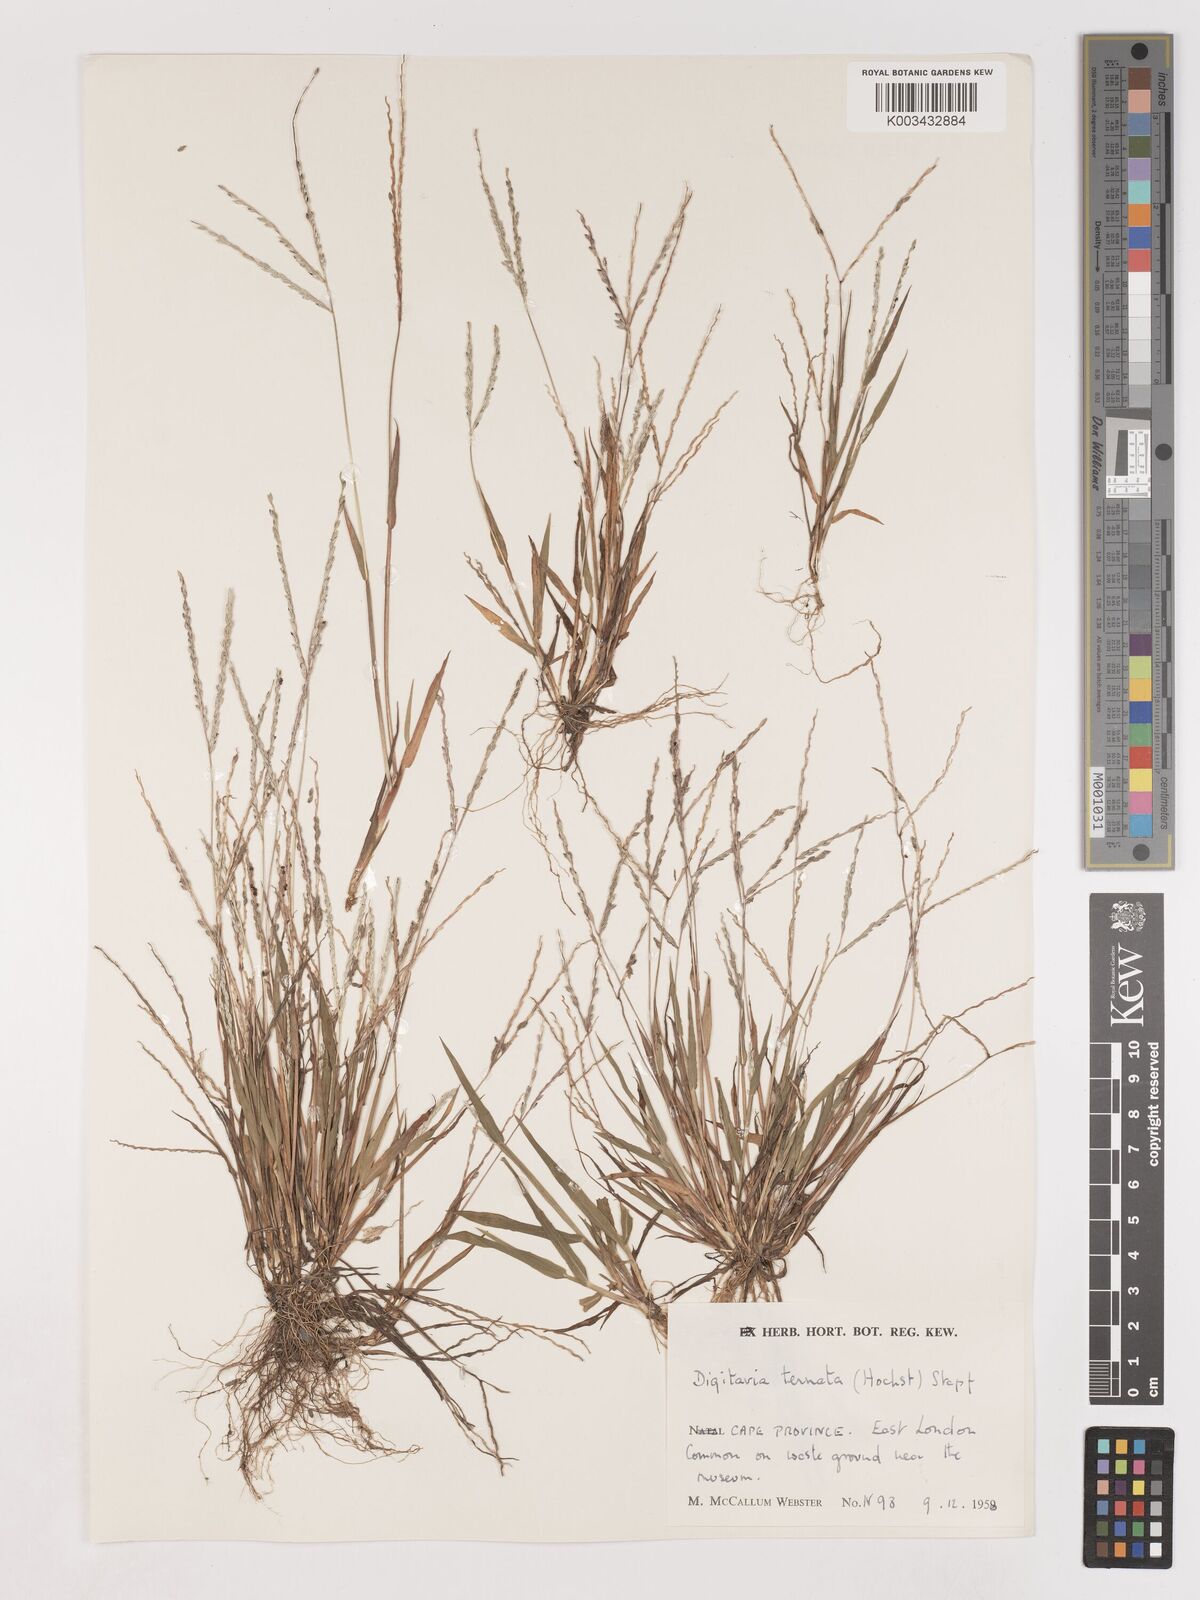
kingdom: Plantae
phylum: Tracheophyta
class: Liliopsida
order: Poales
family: Poaceae
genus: Digitaria
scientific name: Digitaria ternata
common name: Blackseed crabgrass
